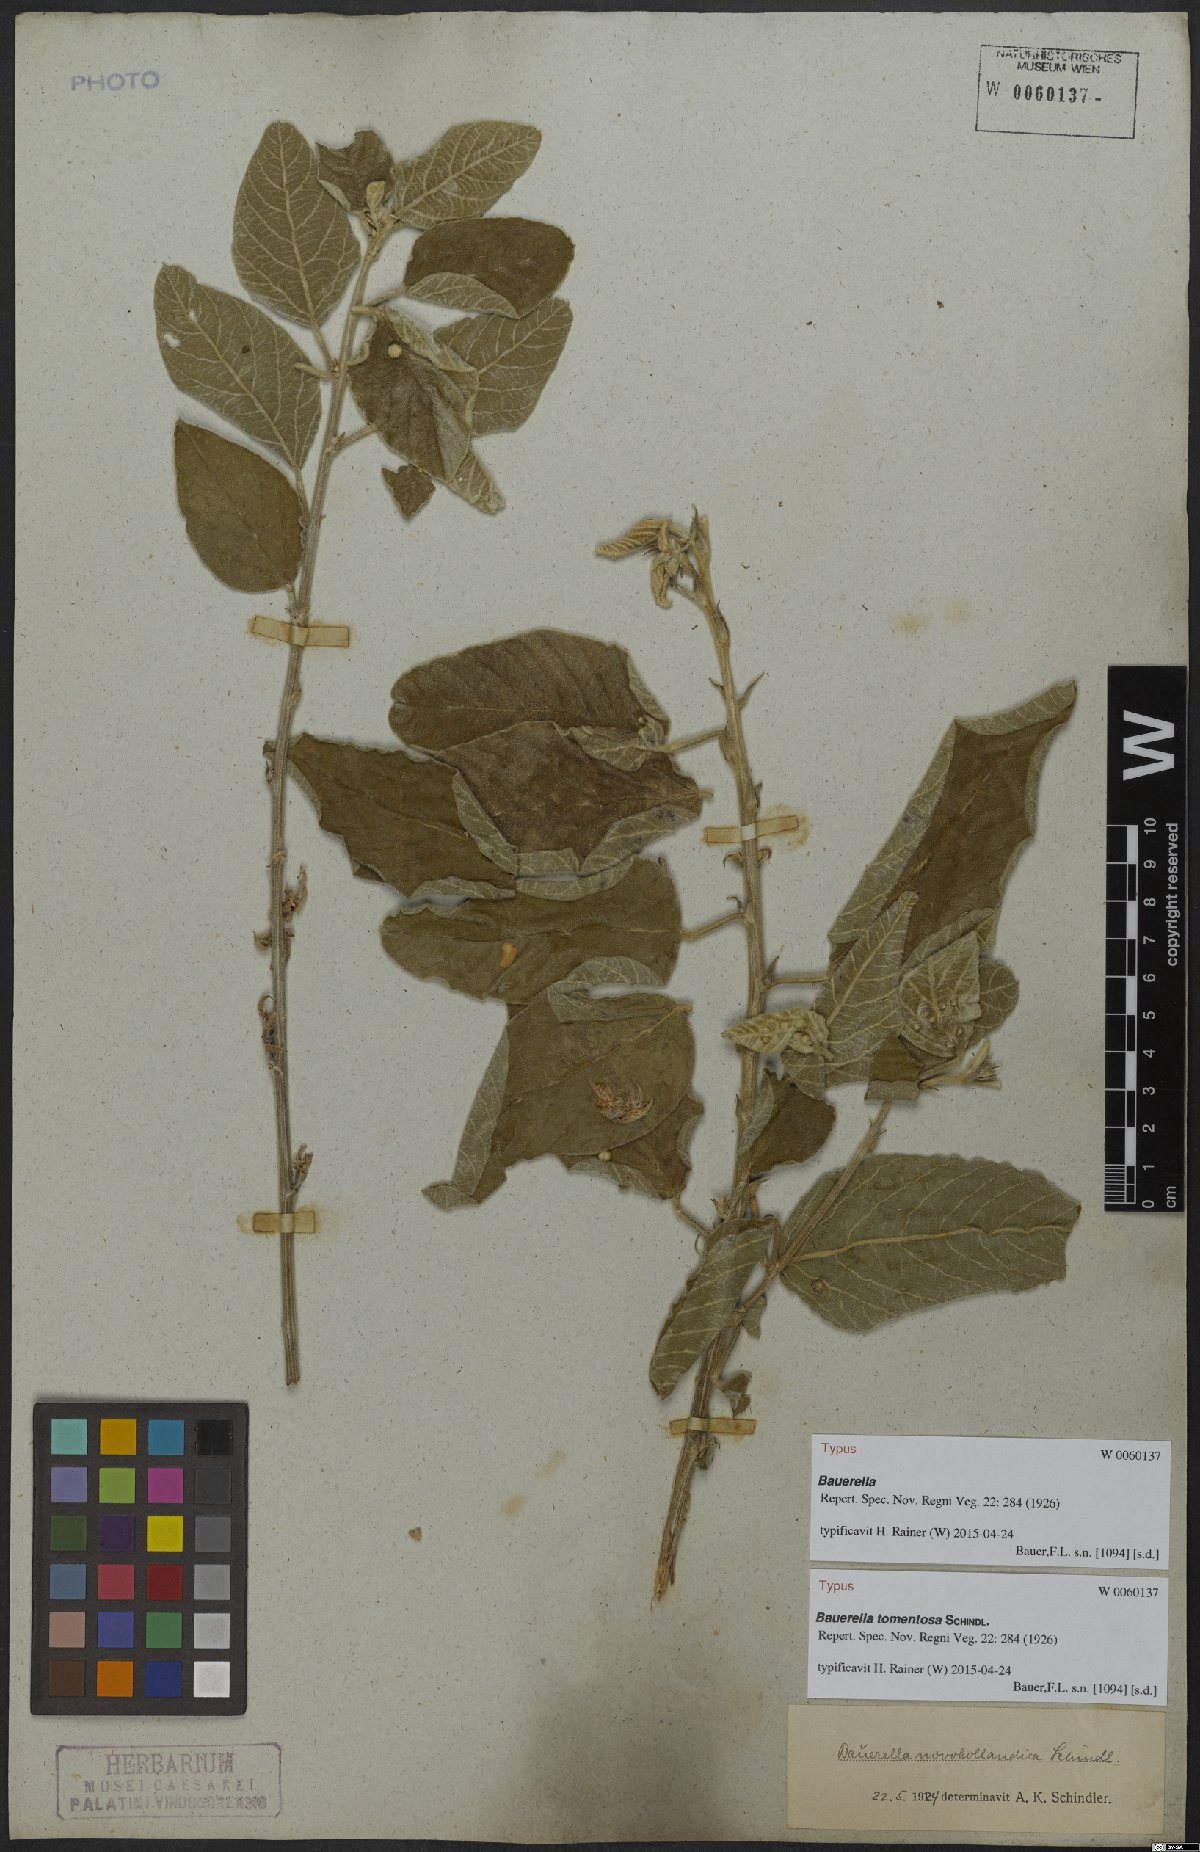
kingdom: Plantae
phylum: Tracheophyta
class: Magnoliopsida
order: Fabales
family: Fabaceae
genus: Cullen
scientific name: Cullen Bauerella tomentosa
